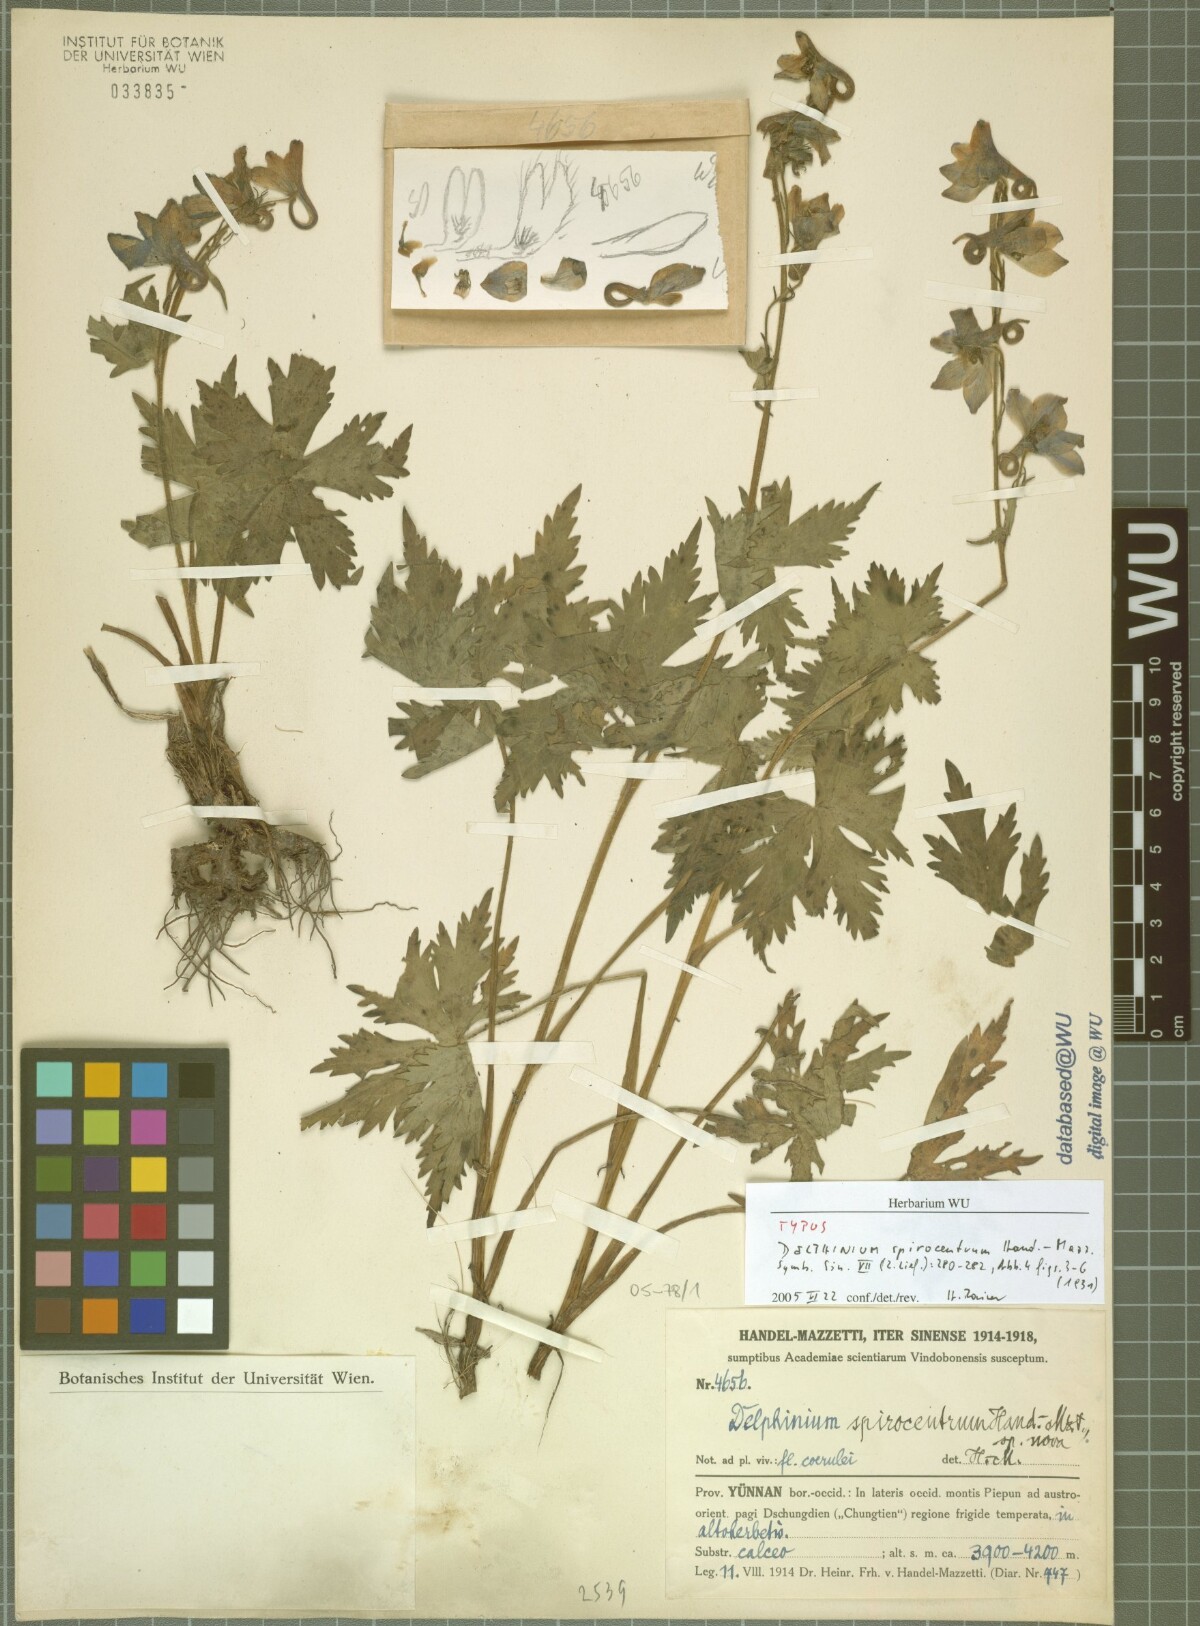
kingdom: Plantae
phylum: Tracheophyta
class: Magnoliopsida
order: Ranunculales
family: Ranunculaceae
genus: Delphinium
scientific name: Delphinium spirocentrum
